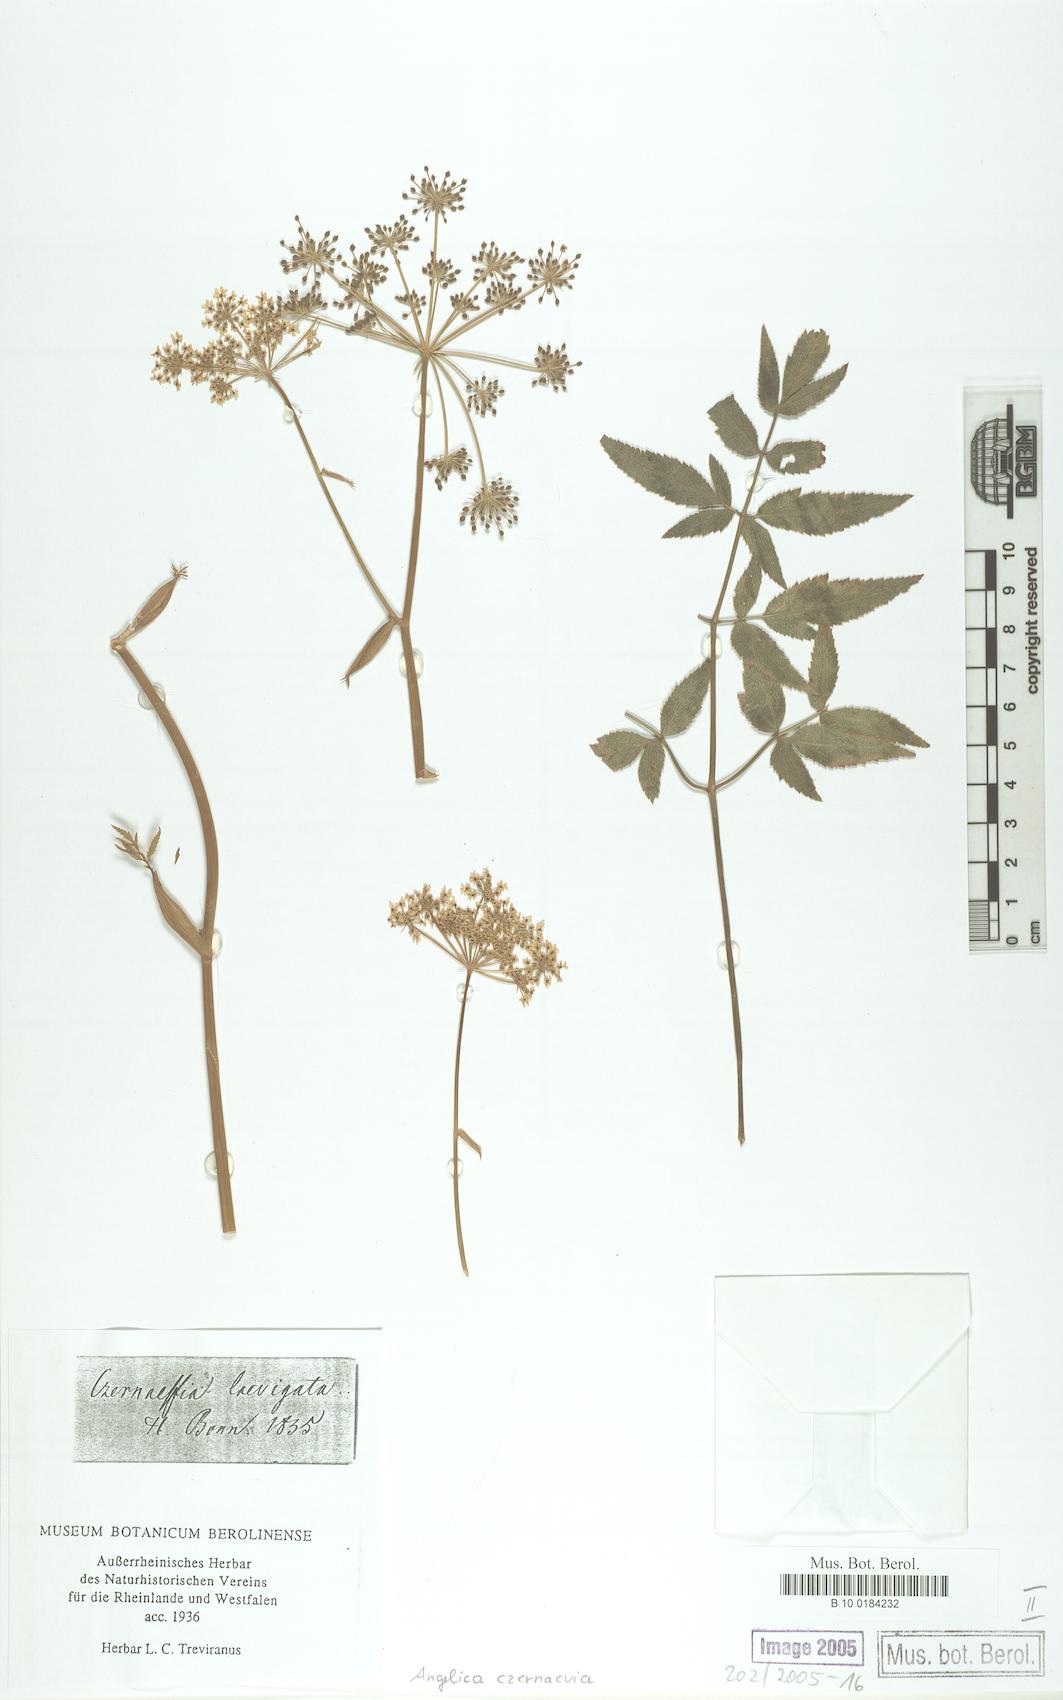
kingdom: Plantae
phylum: Tracheophyta
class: Magnoliopsida
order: Apiales
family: Apiaceae
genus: Angelica
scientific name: Angelica czernaevia
